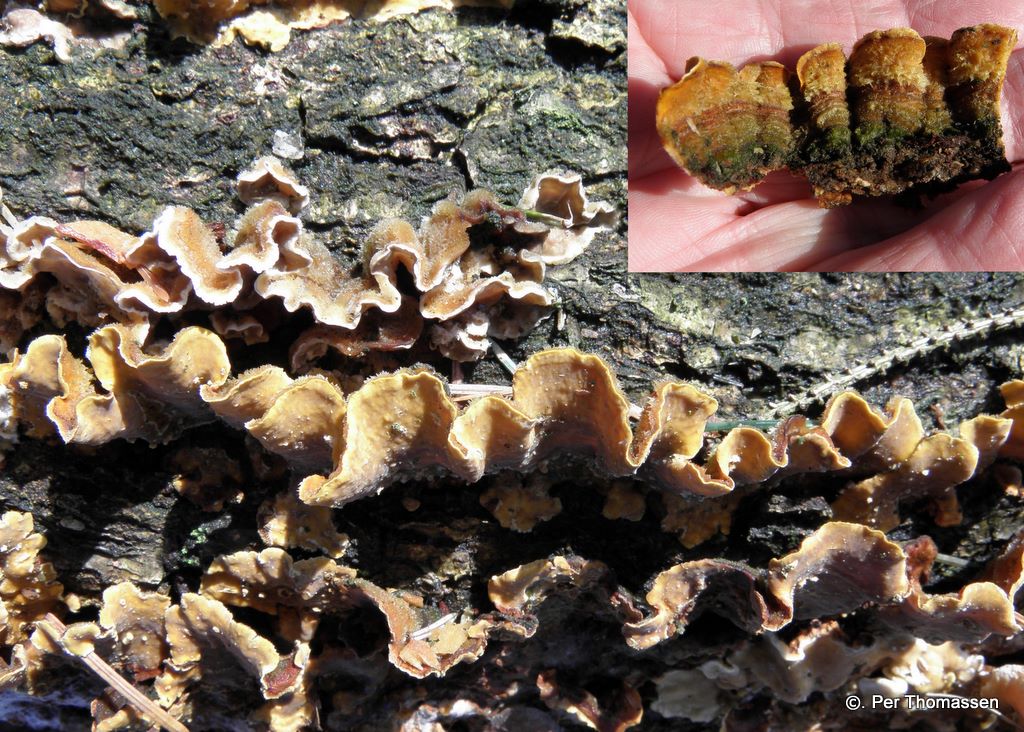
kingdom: Fungi
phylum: Basidiomycota
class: Agaricomycetes
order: Russulales
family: Stereaceae
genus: Stereum
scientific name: Stereum hirsutum
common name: håret lædersvamp
